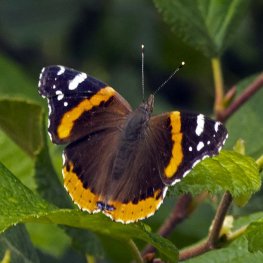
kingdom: Animalia
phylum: Arthropoda
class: Insecta
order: Lepidoptera
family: Nymphalidae
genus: Vanessa
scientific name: Vanessa atalanta
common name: Red Admiral
